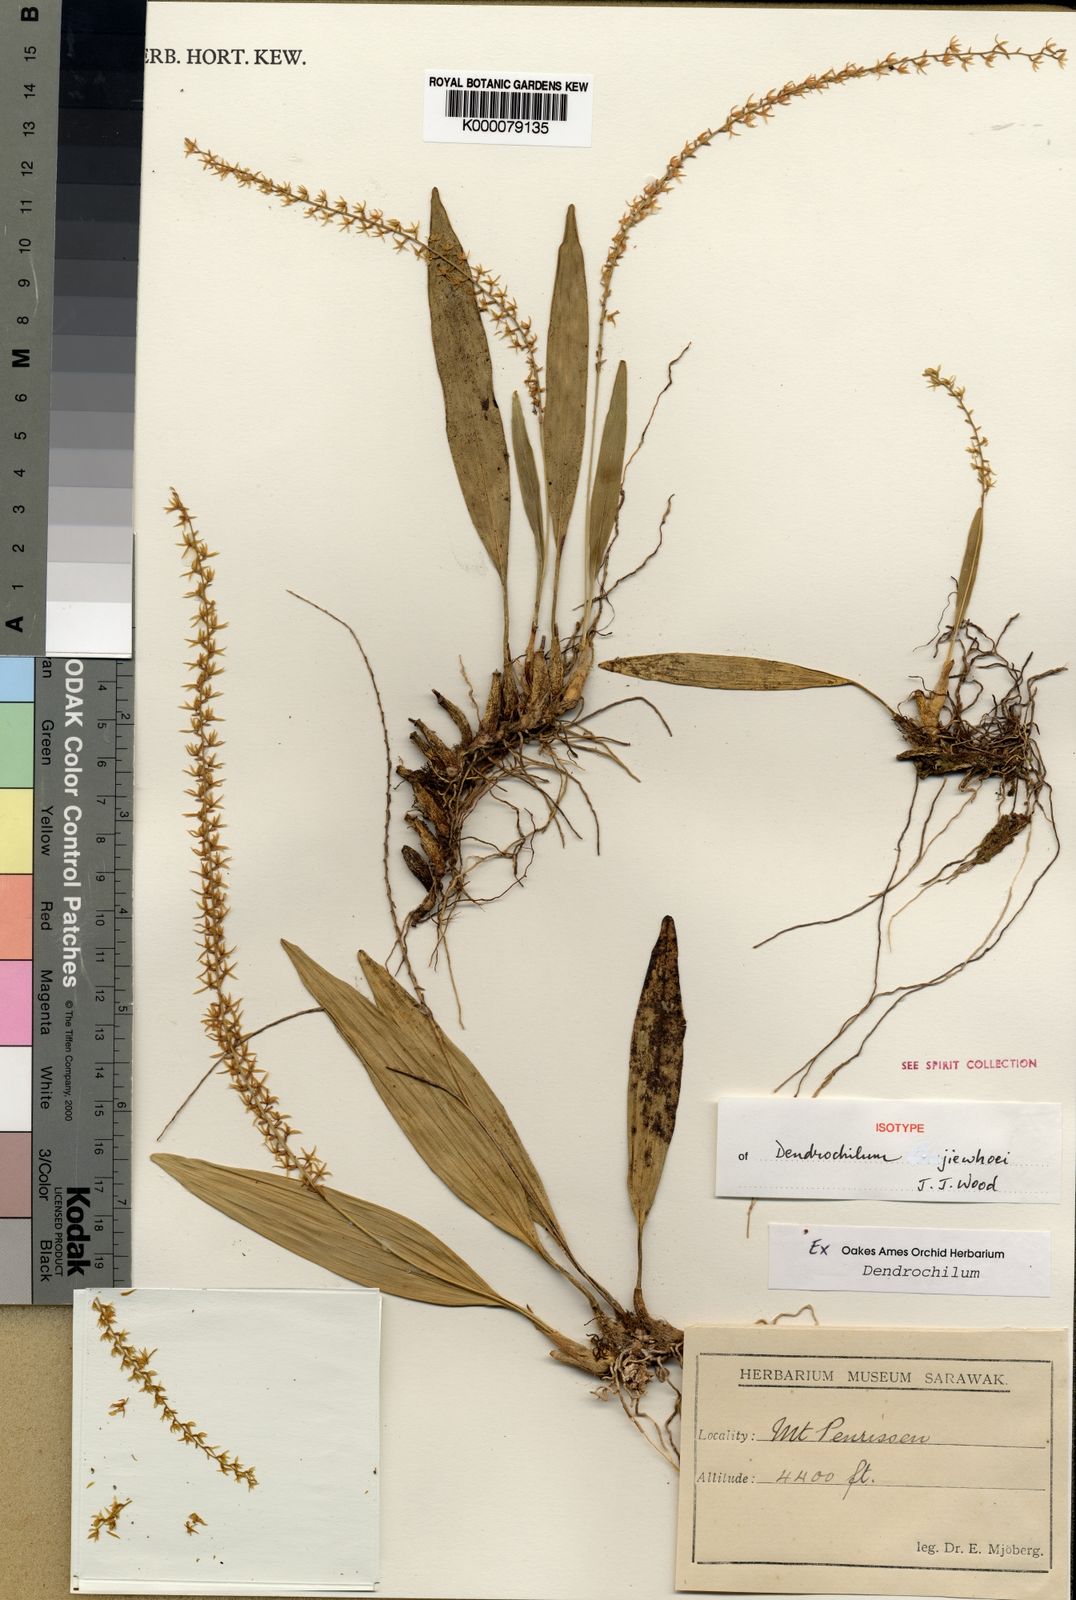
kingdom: Plantae
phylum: Tracheophyta
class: Liliopsida
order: Asparagales
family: Orchidaceae
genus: Coelogyne
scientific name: Coelogyne jiewhoei
